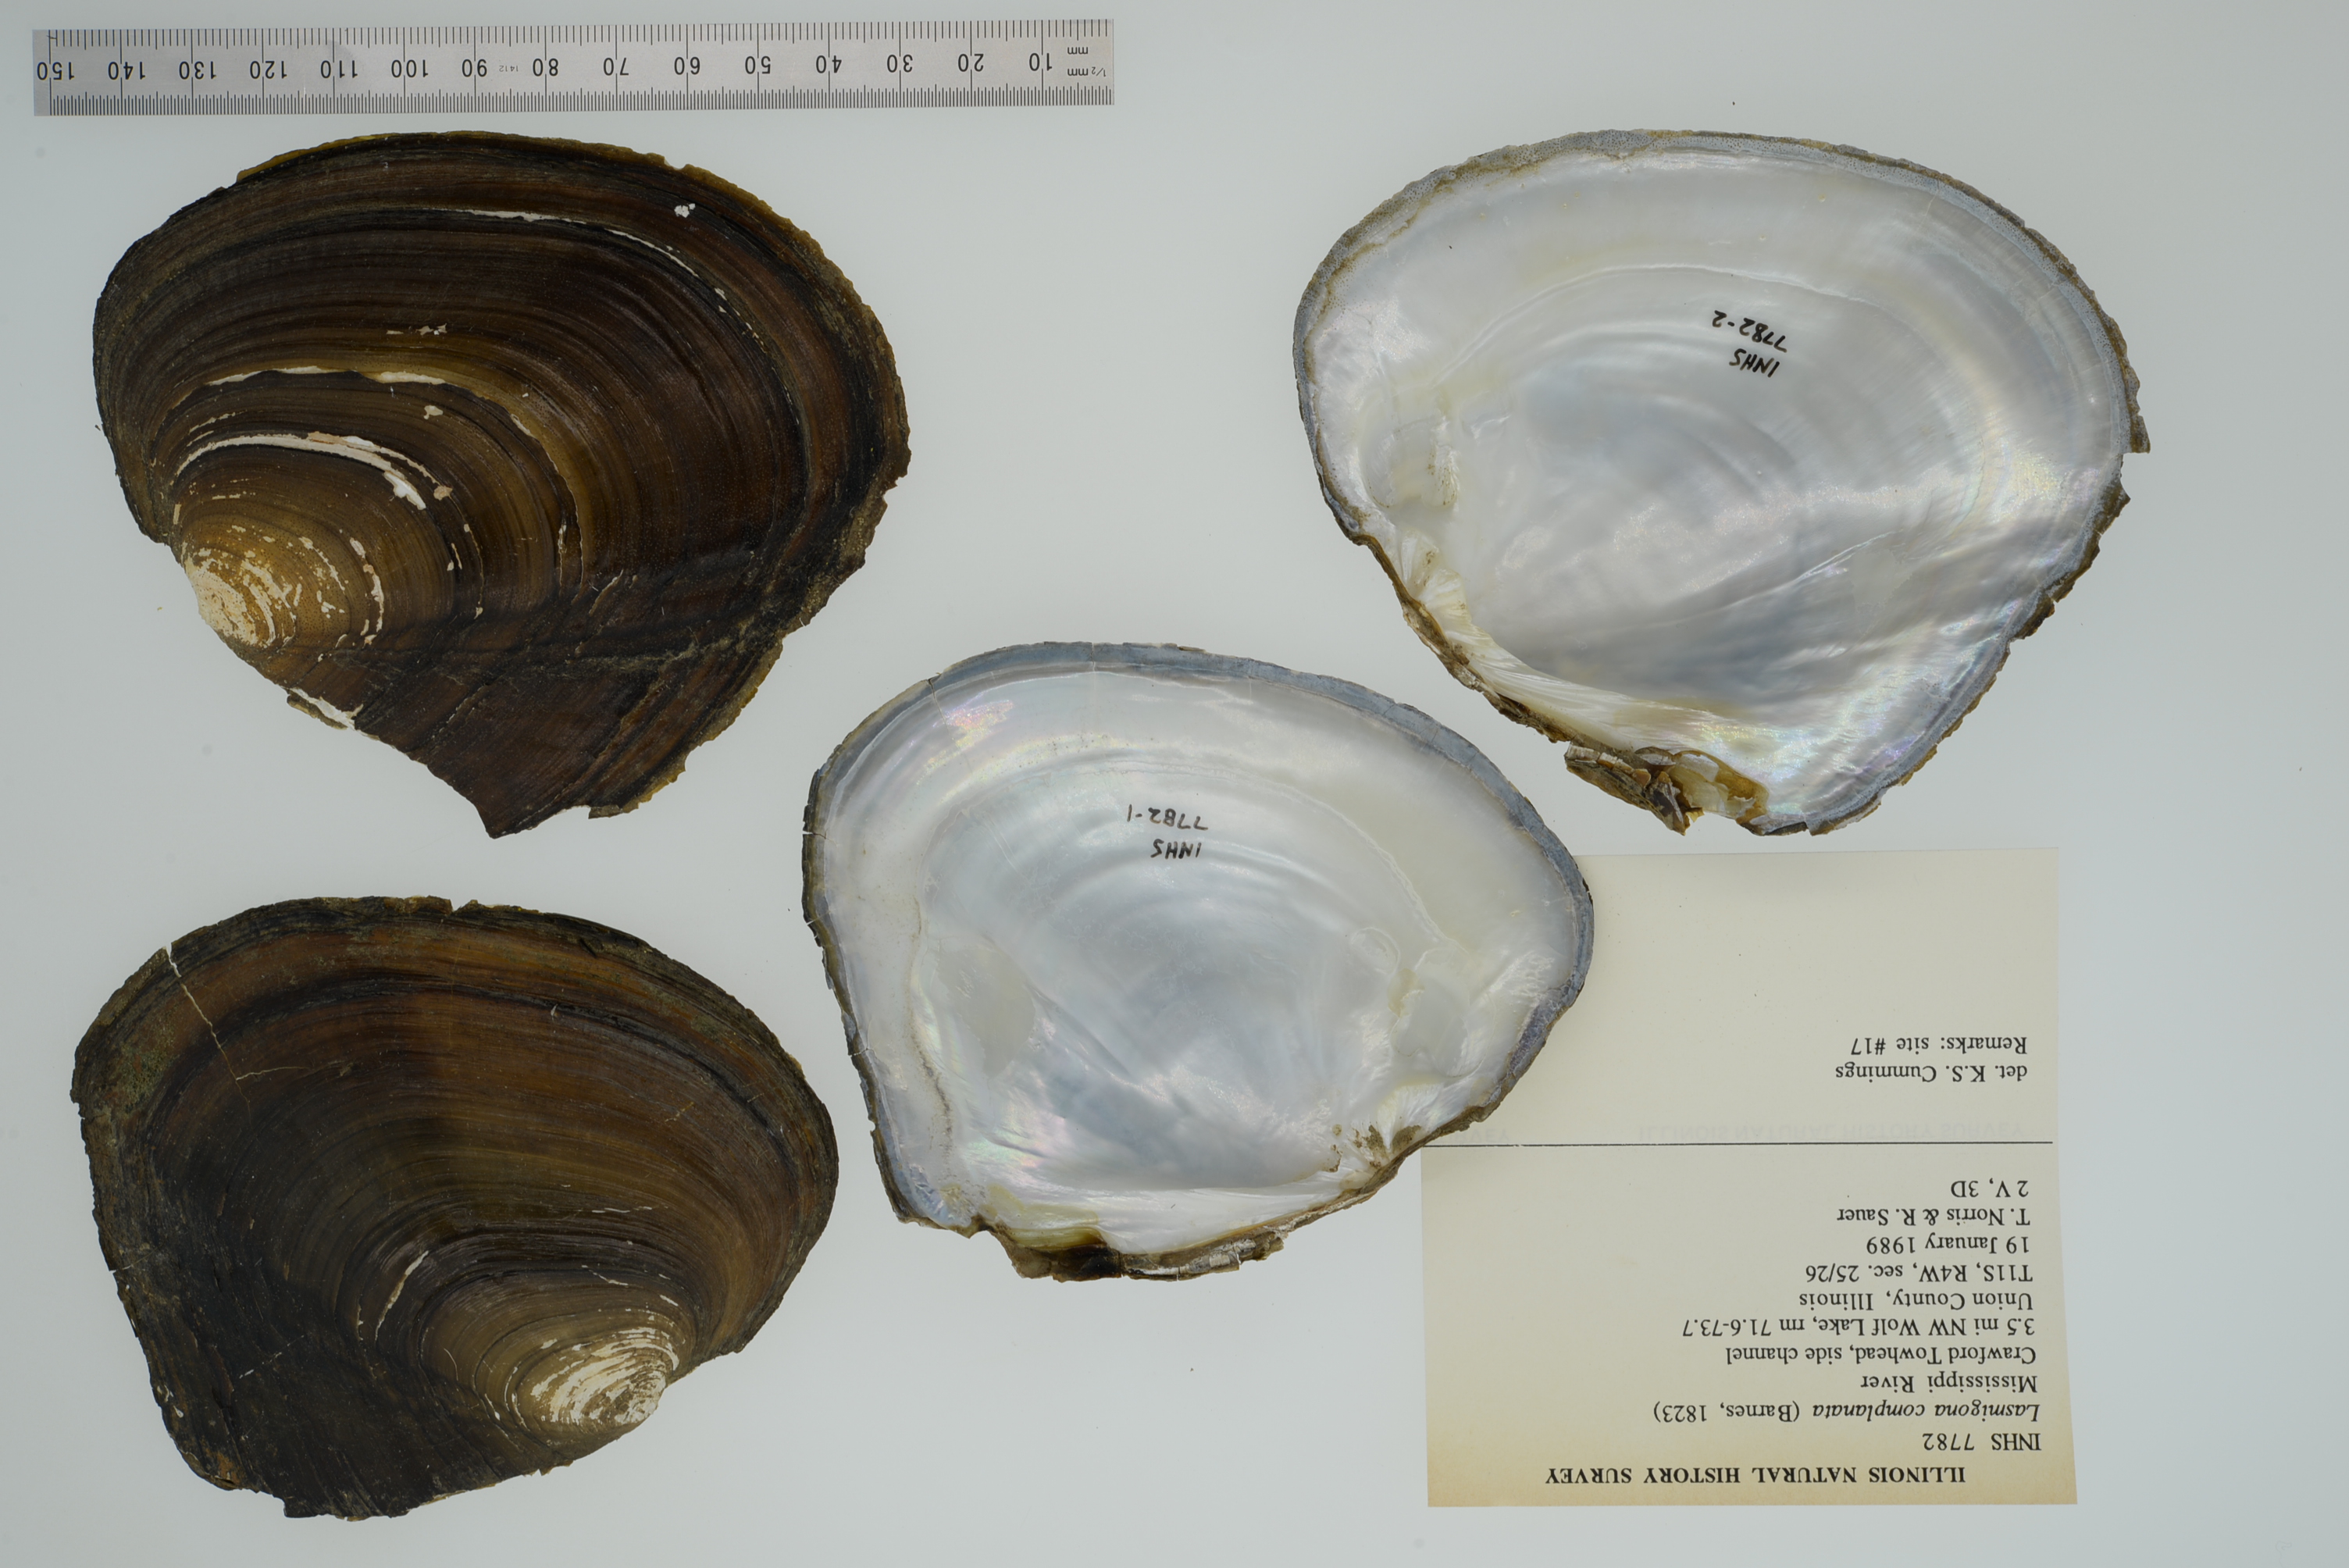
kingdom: Animalia
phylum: Mollusca
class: Bivalvia
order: Unionida
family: Unionidae
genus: Lasmigona
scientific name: Lasmigona complanata
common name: White heelsplitter
